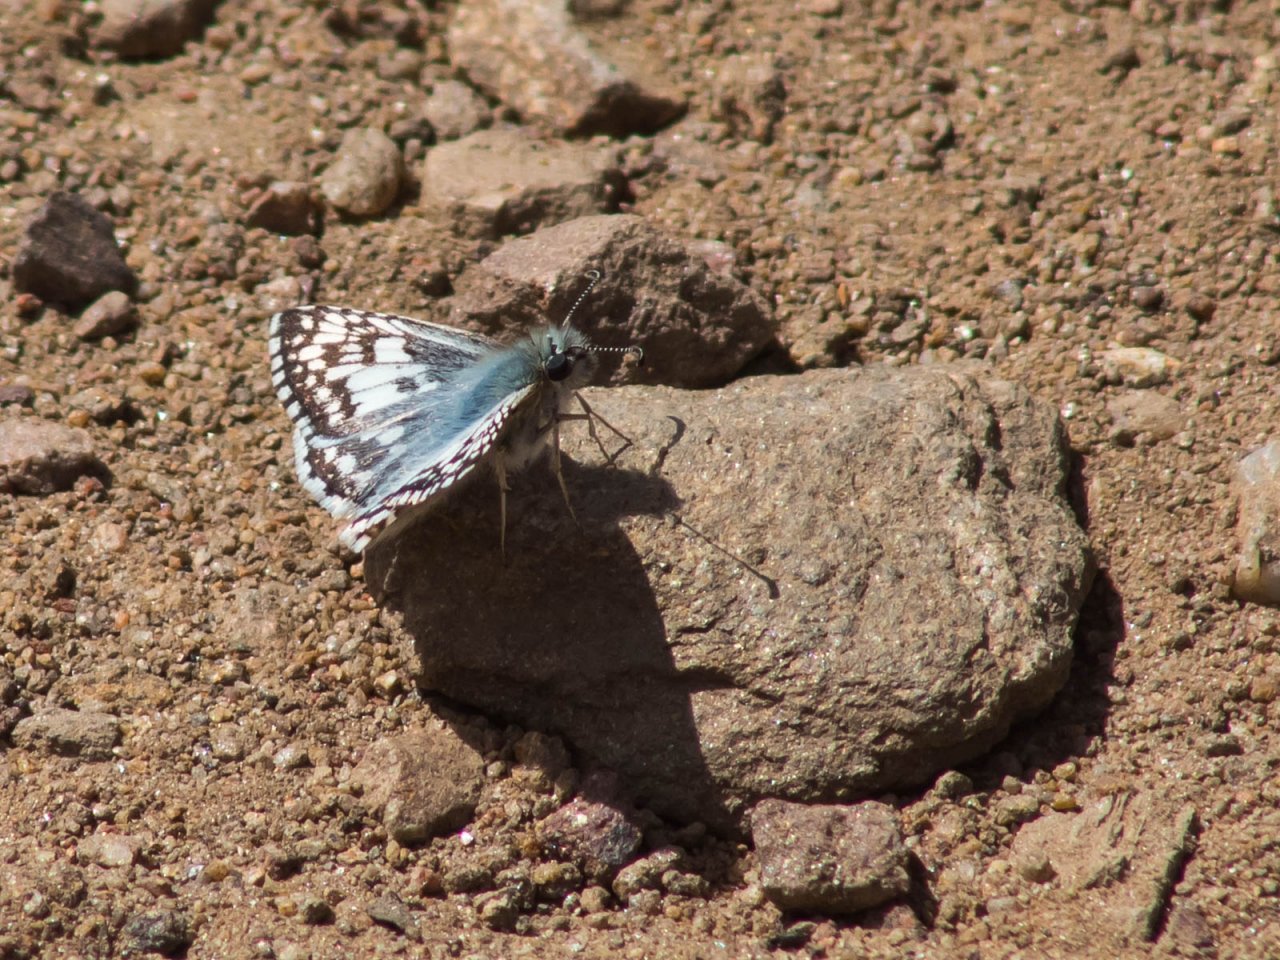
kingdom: Animalia
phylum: Arthropoda
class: Insecta
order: Lepidoptera
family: Hesperiidae
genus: Pyrgus
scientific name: Pyrgus
